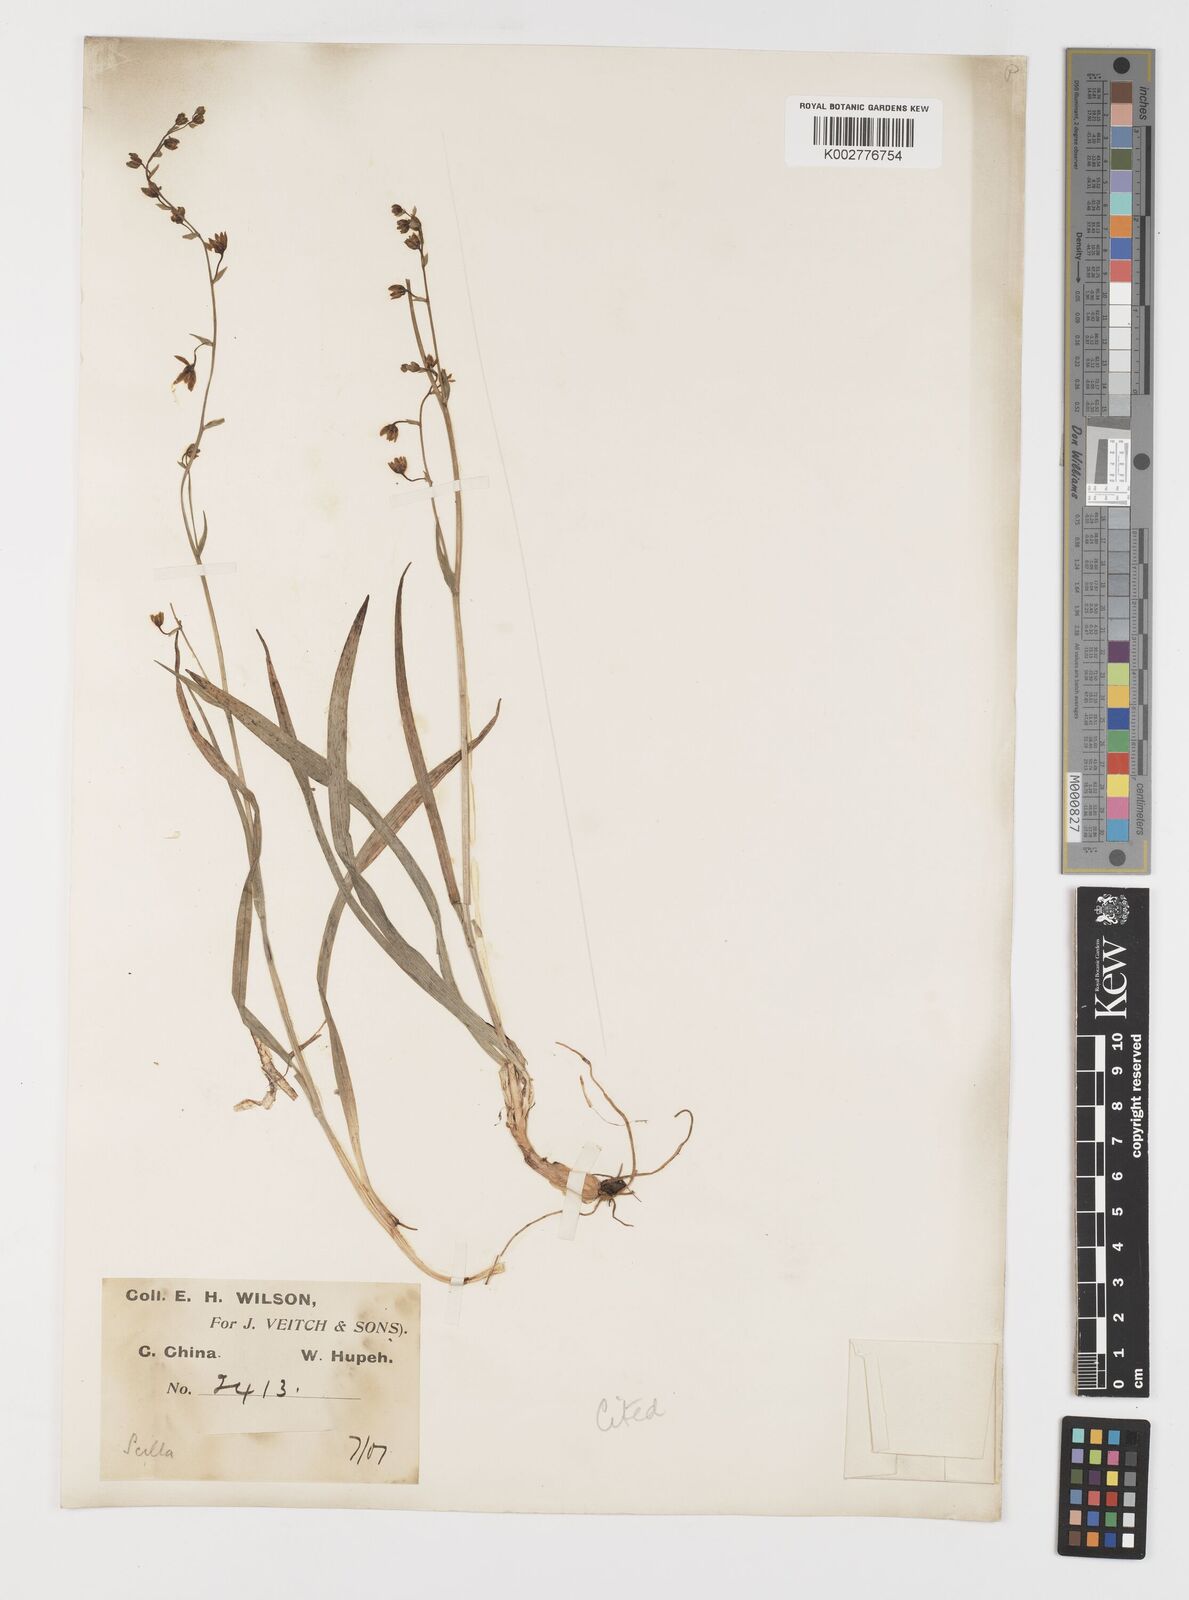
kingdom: Plantae
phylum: Tracheophyta
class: Liliopsida
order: Liliales
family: Melanthiaceae
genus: Anticlea
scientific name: Anticlea sibirica
